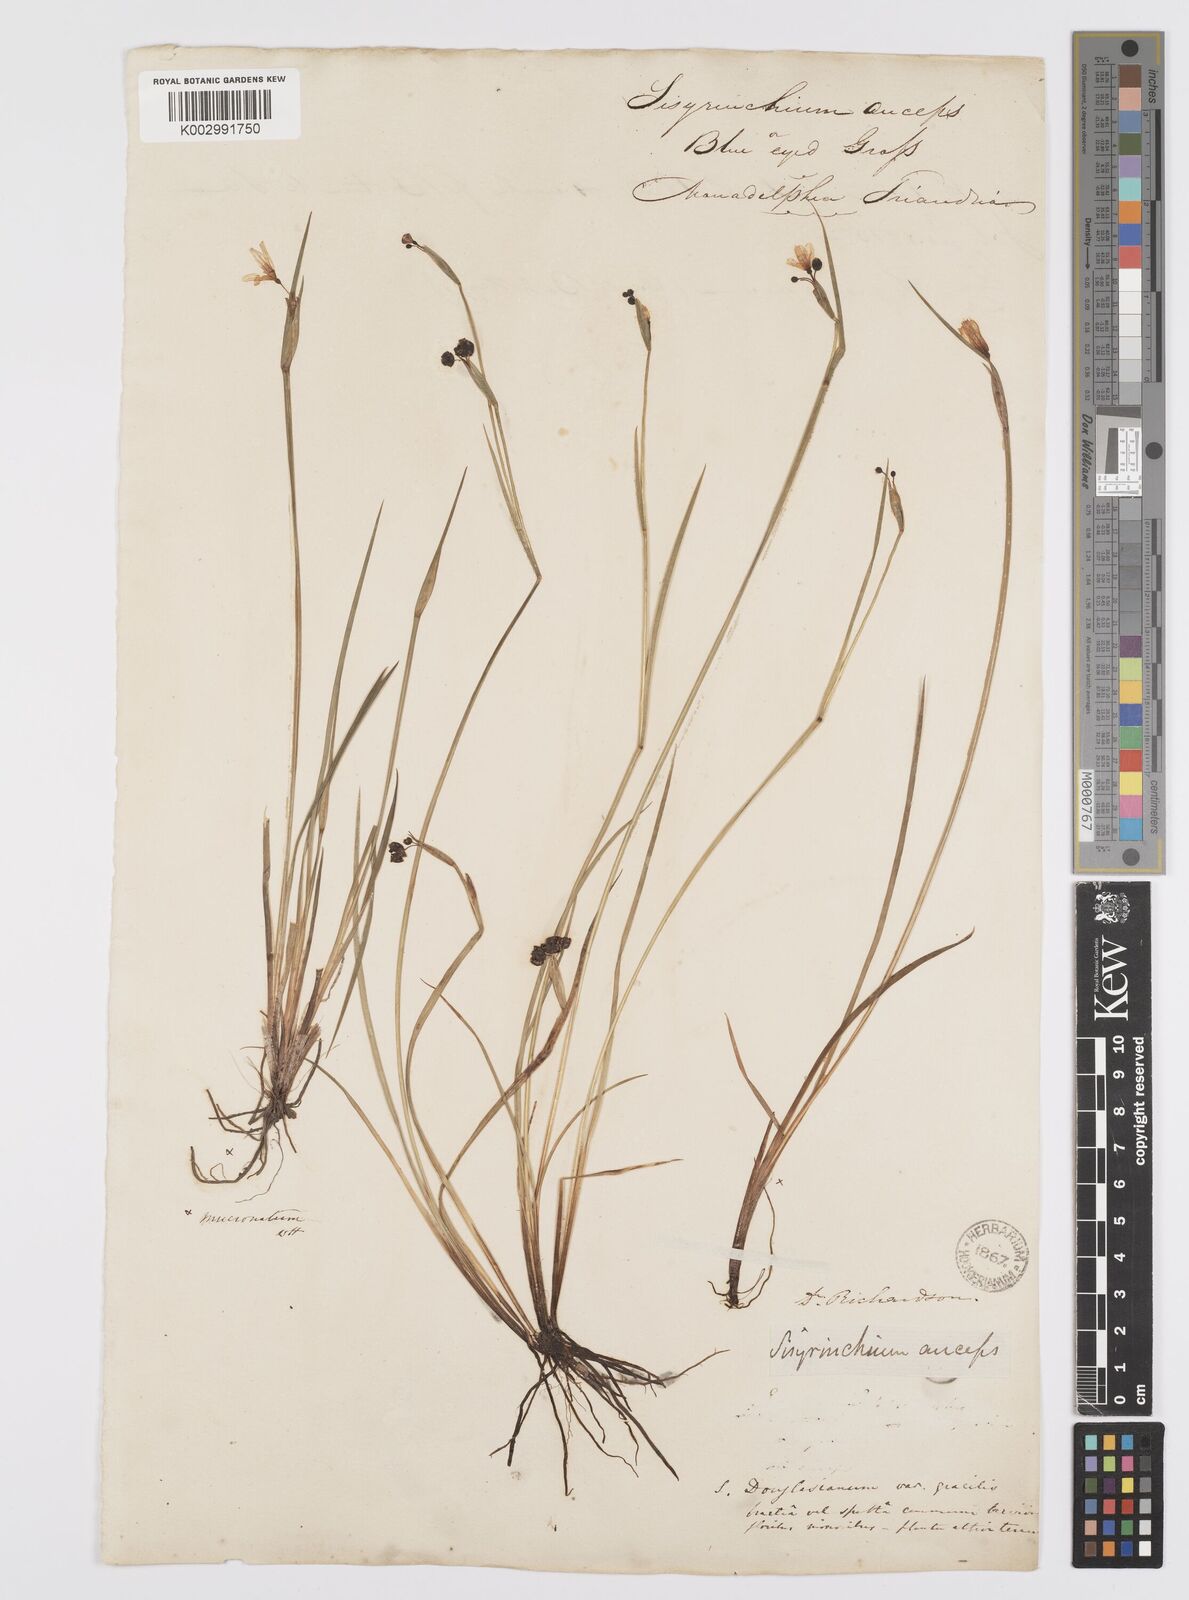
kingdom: Plantae
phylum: Tracheophyta
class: Liliopsida
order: Asparagales
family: Iridaceae
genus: Sisyrinchium
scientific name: Sisyrinchium bermudiana
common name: Blue-eyed-grass
